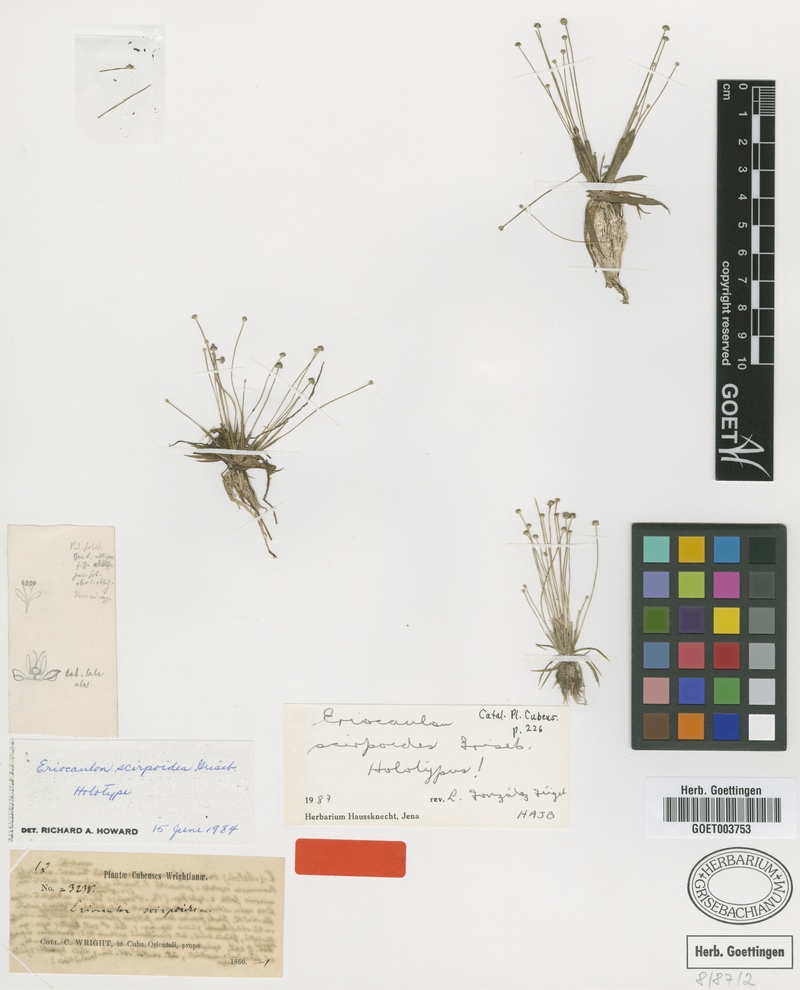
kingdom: Plantae
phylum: Tracheophyta
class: Liliopsida
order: Poales
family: Eriocaulaceae
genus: Eriocaulon
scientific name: Eriocaulon fuliginosum
